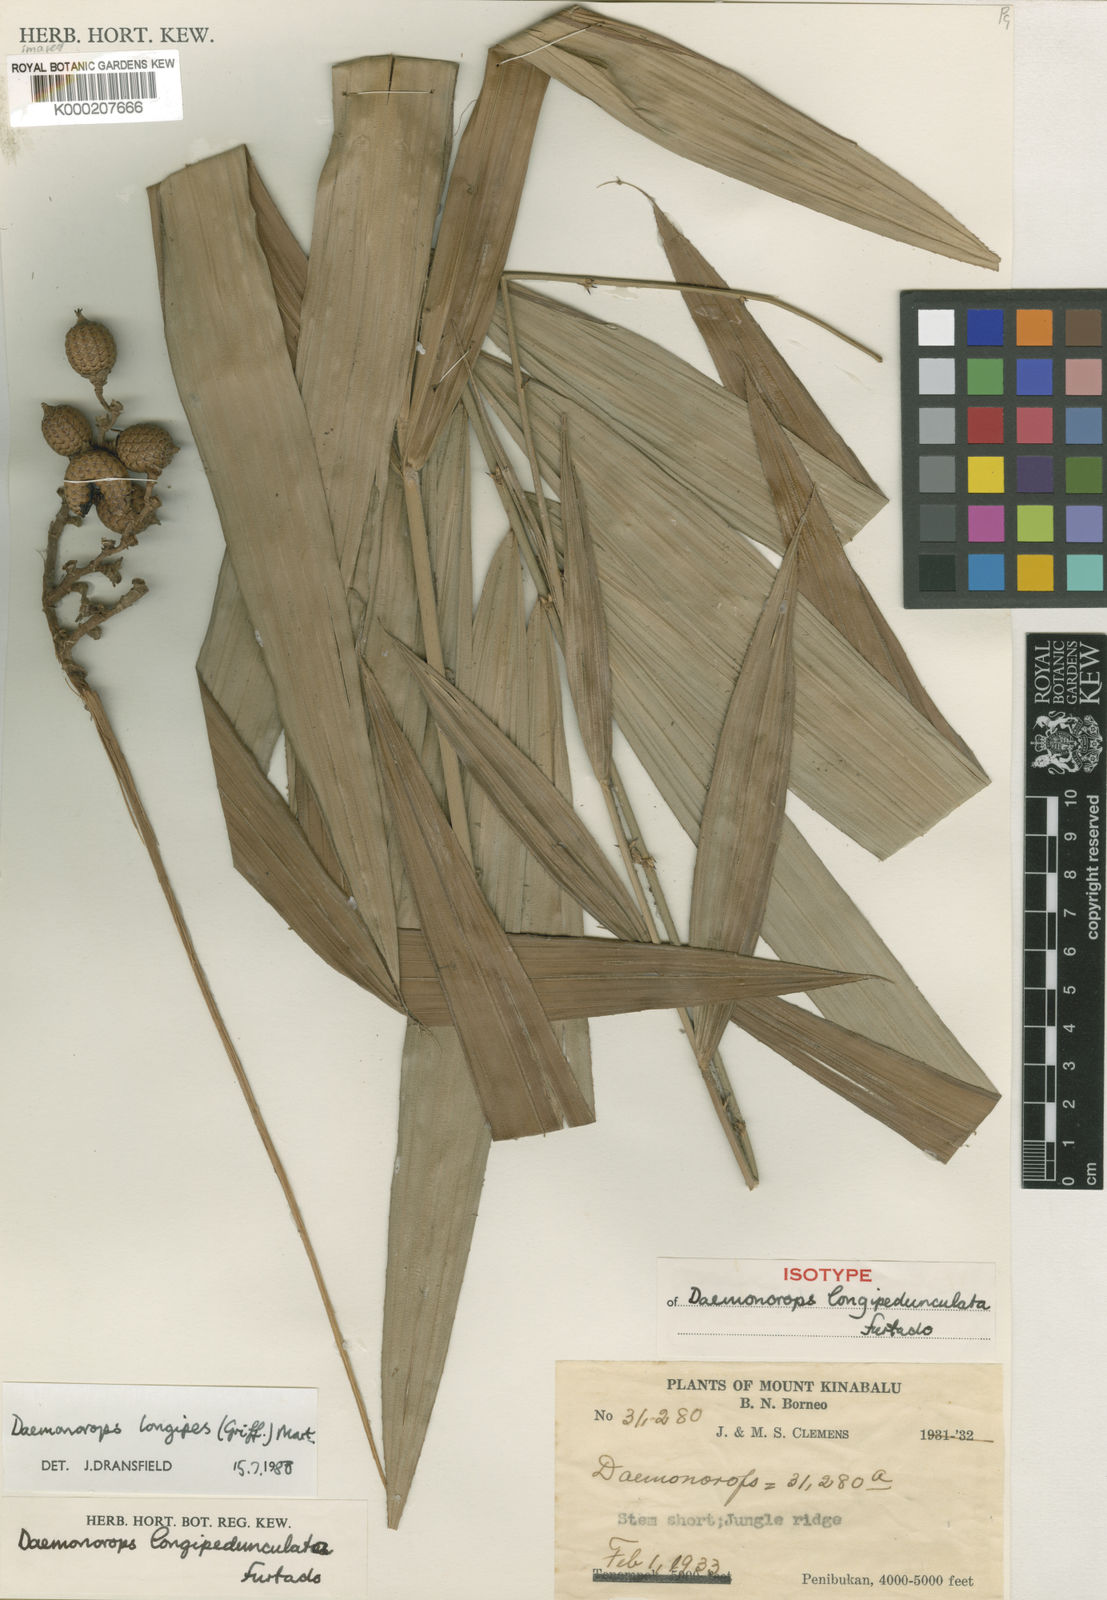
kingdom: Plantae
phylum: Tracheophyta
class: Liliopsida
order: Arecales
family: Arecaceae
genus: Calamus
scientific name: Calamus longipes
